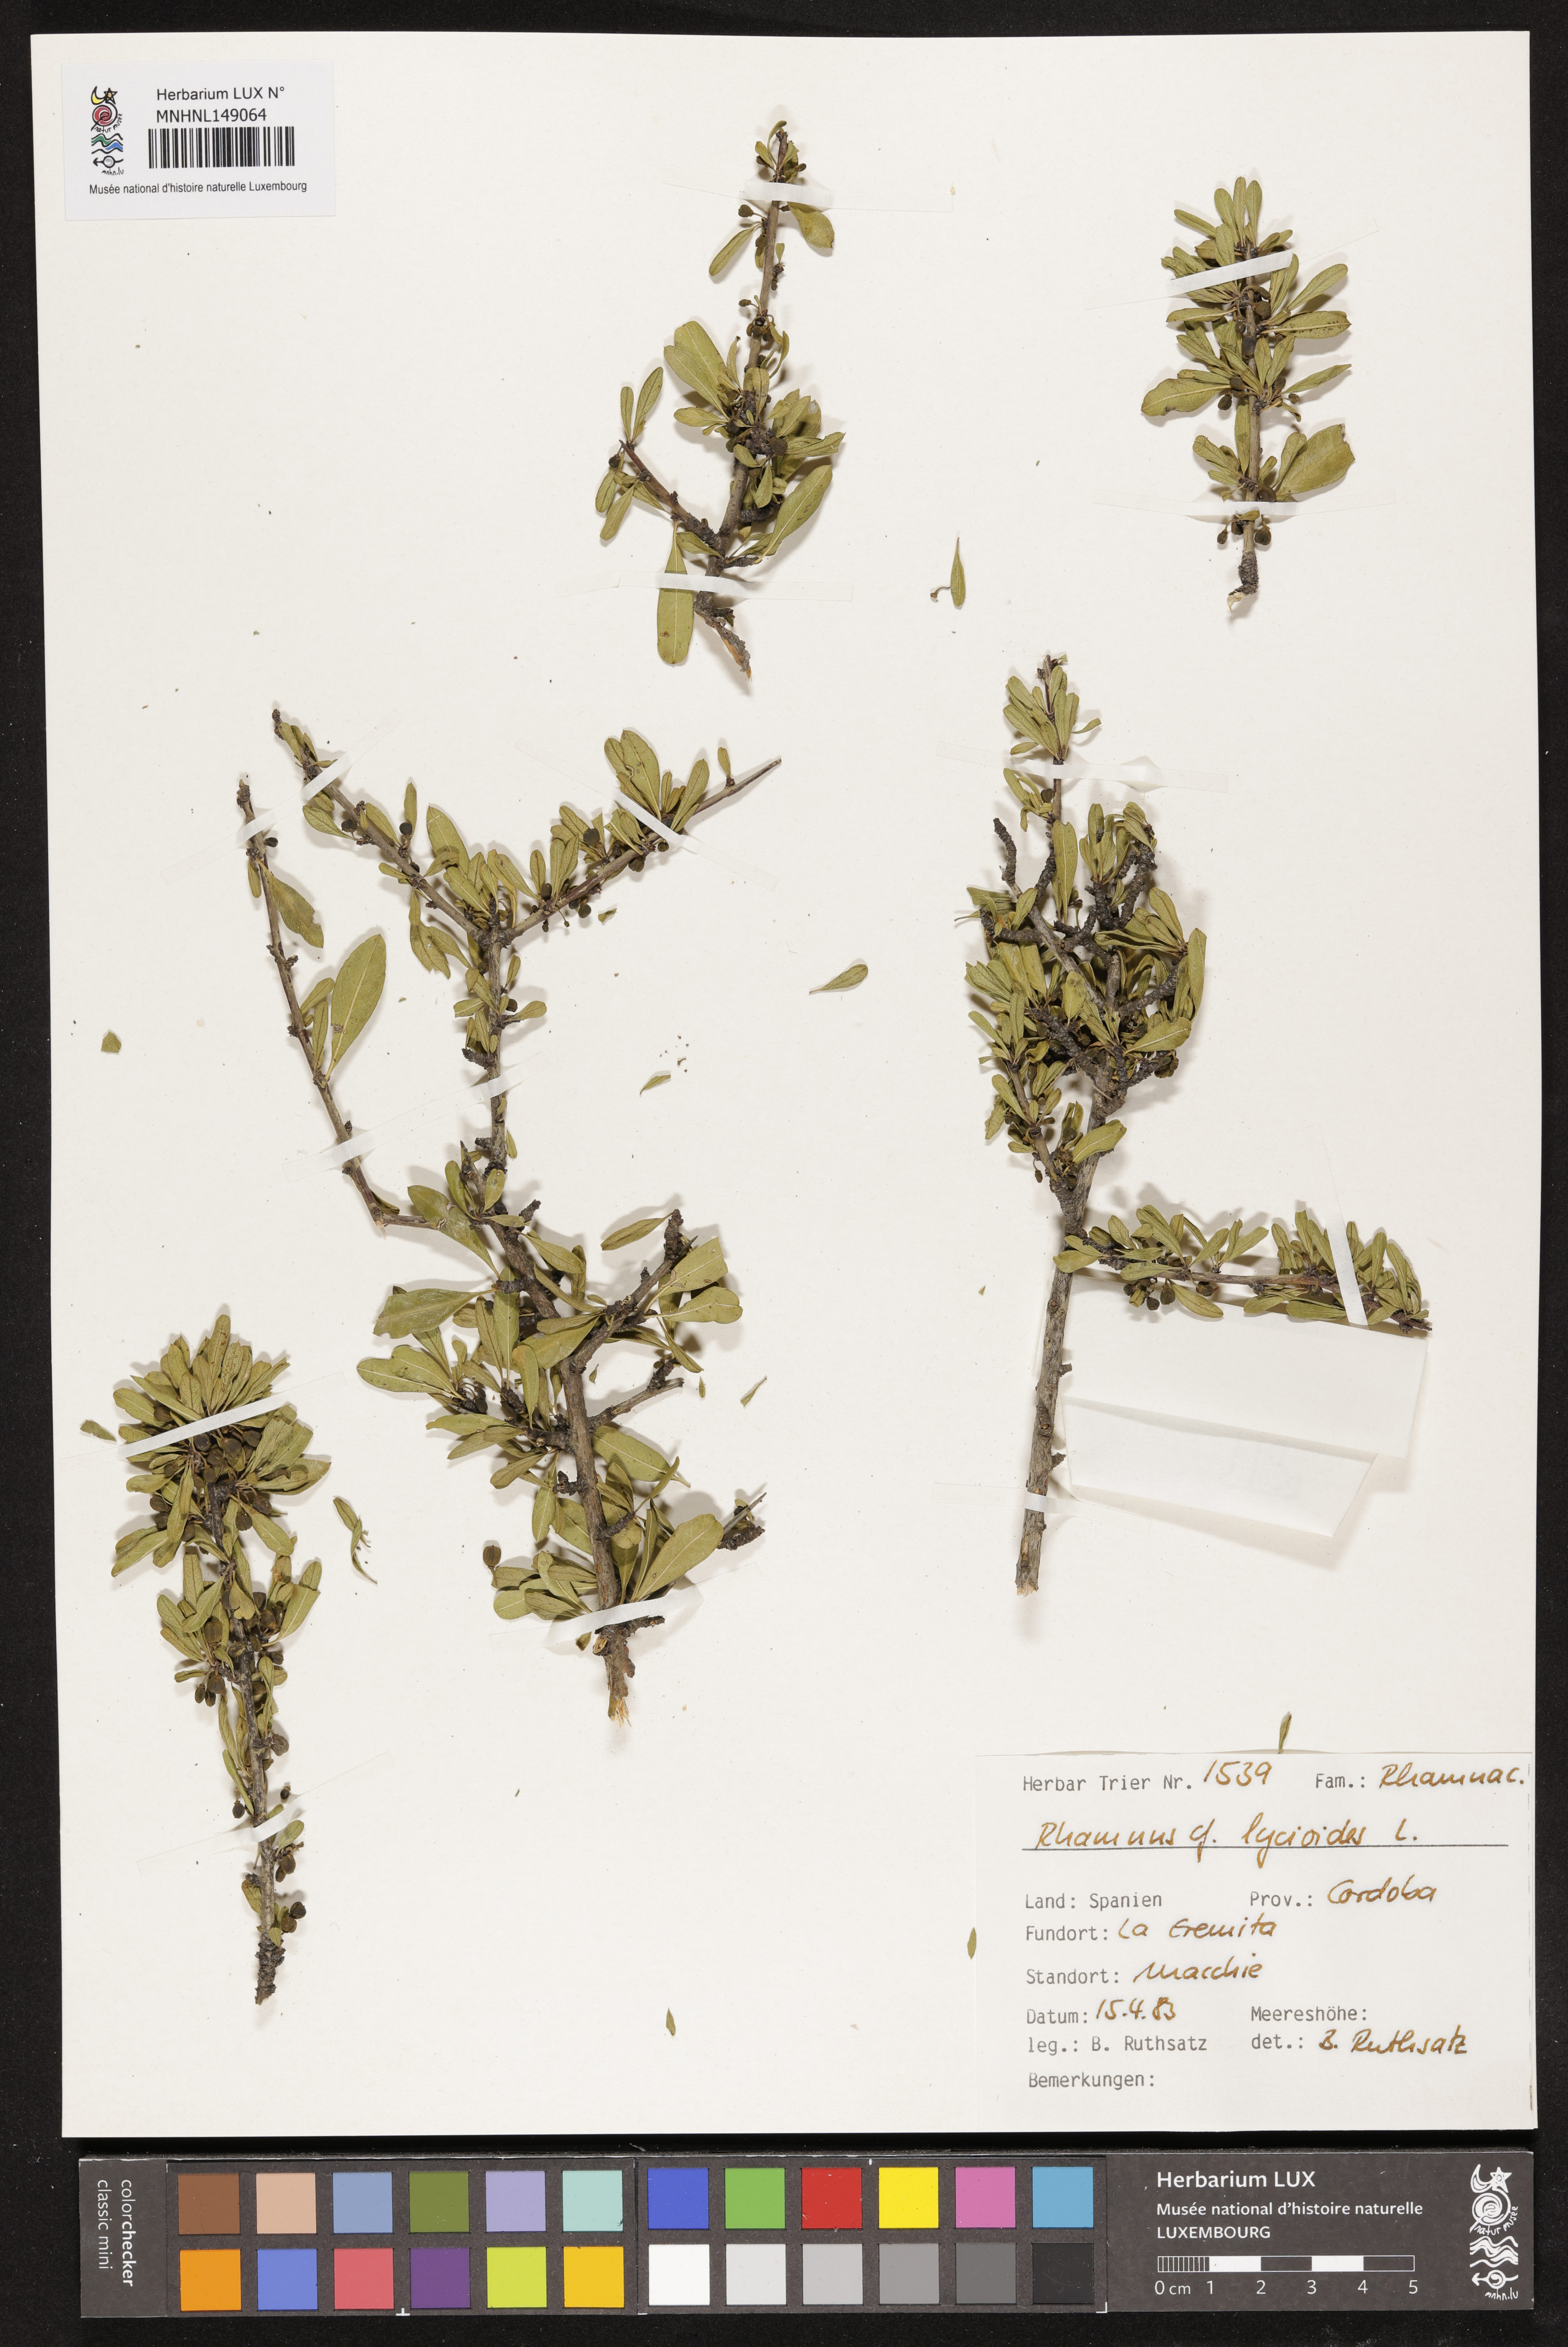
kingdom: Plantae
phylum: Tracheophyta
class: Magnoliopsida
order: Rosales
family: Rhamnaceae
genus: Rhamnus
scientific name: Rhamnus lycioides
